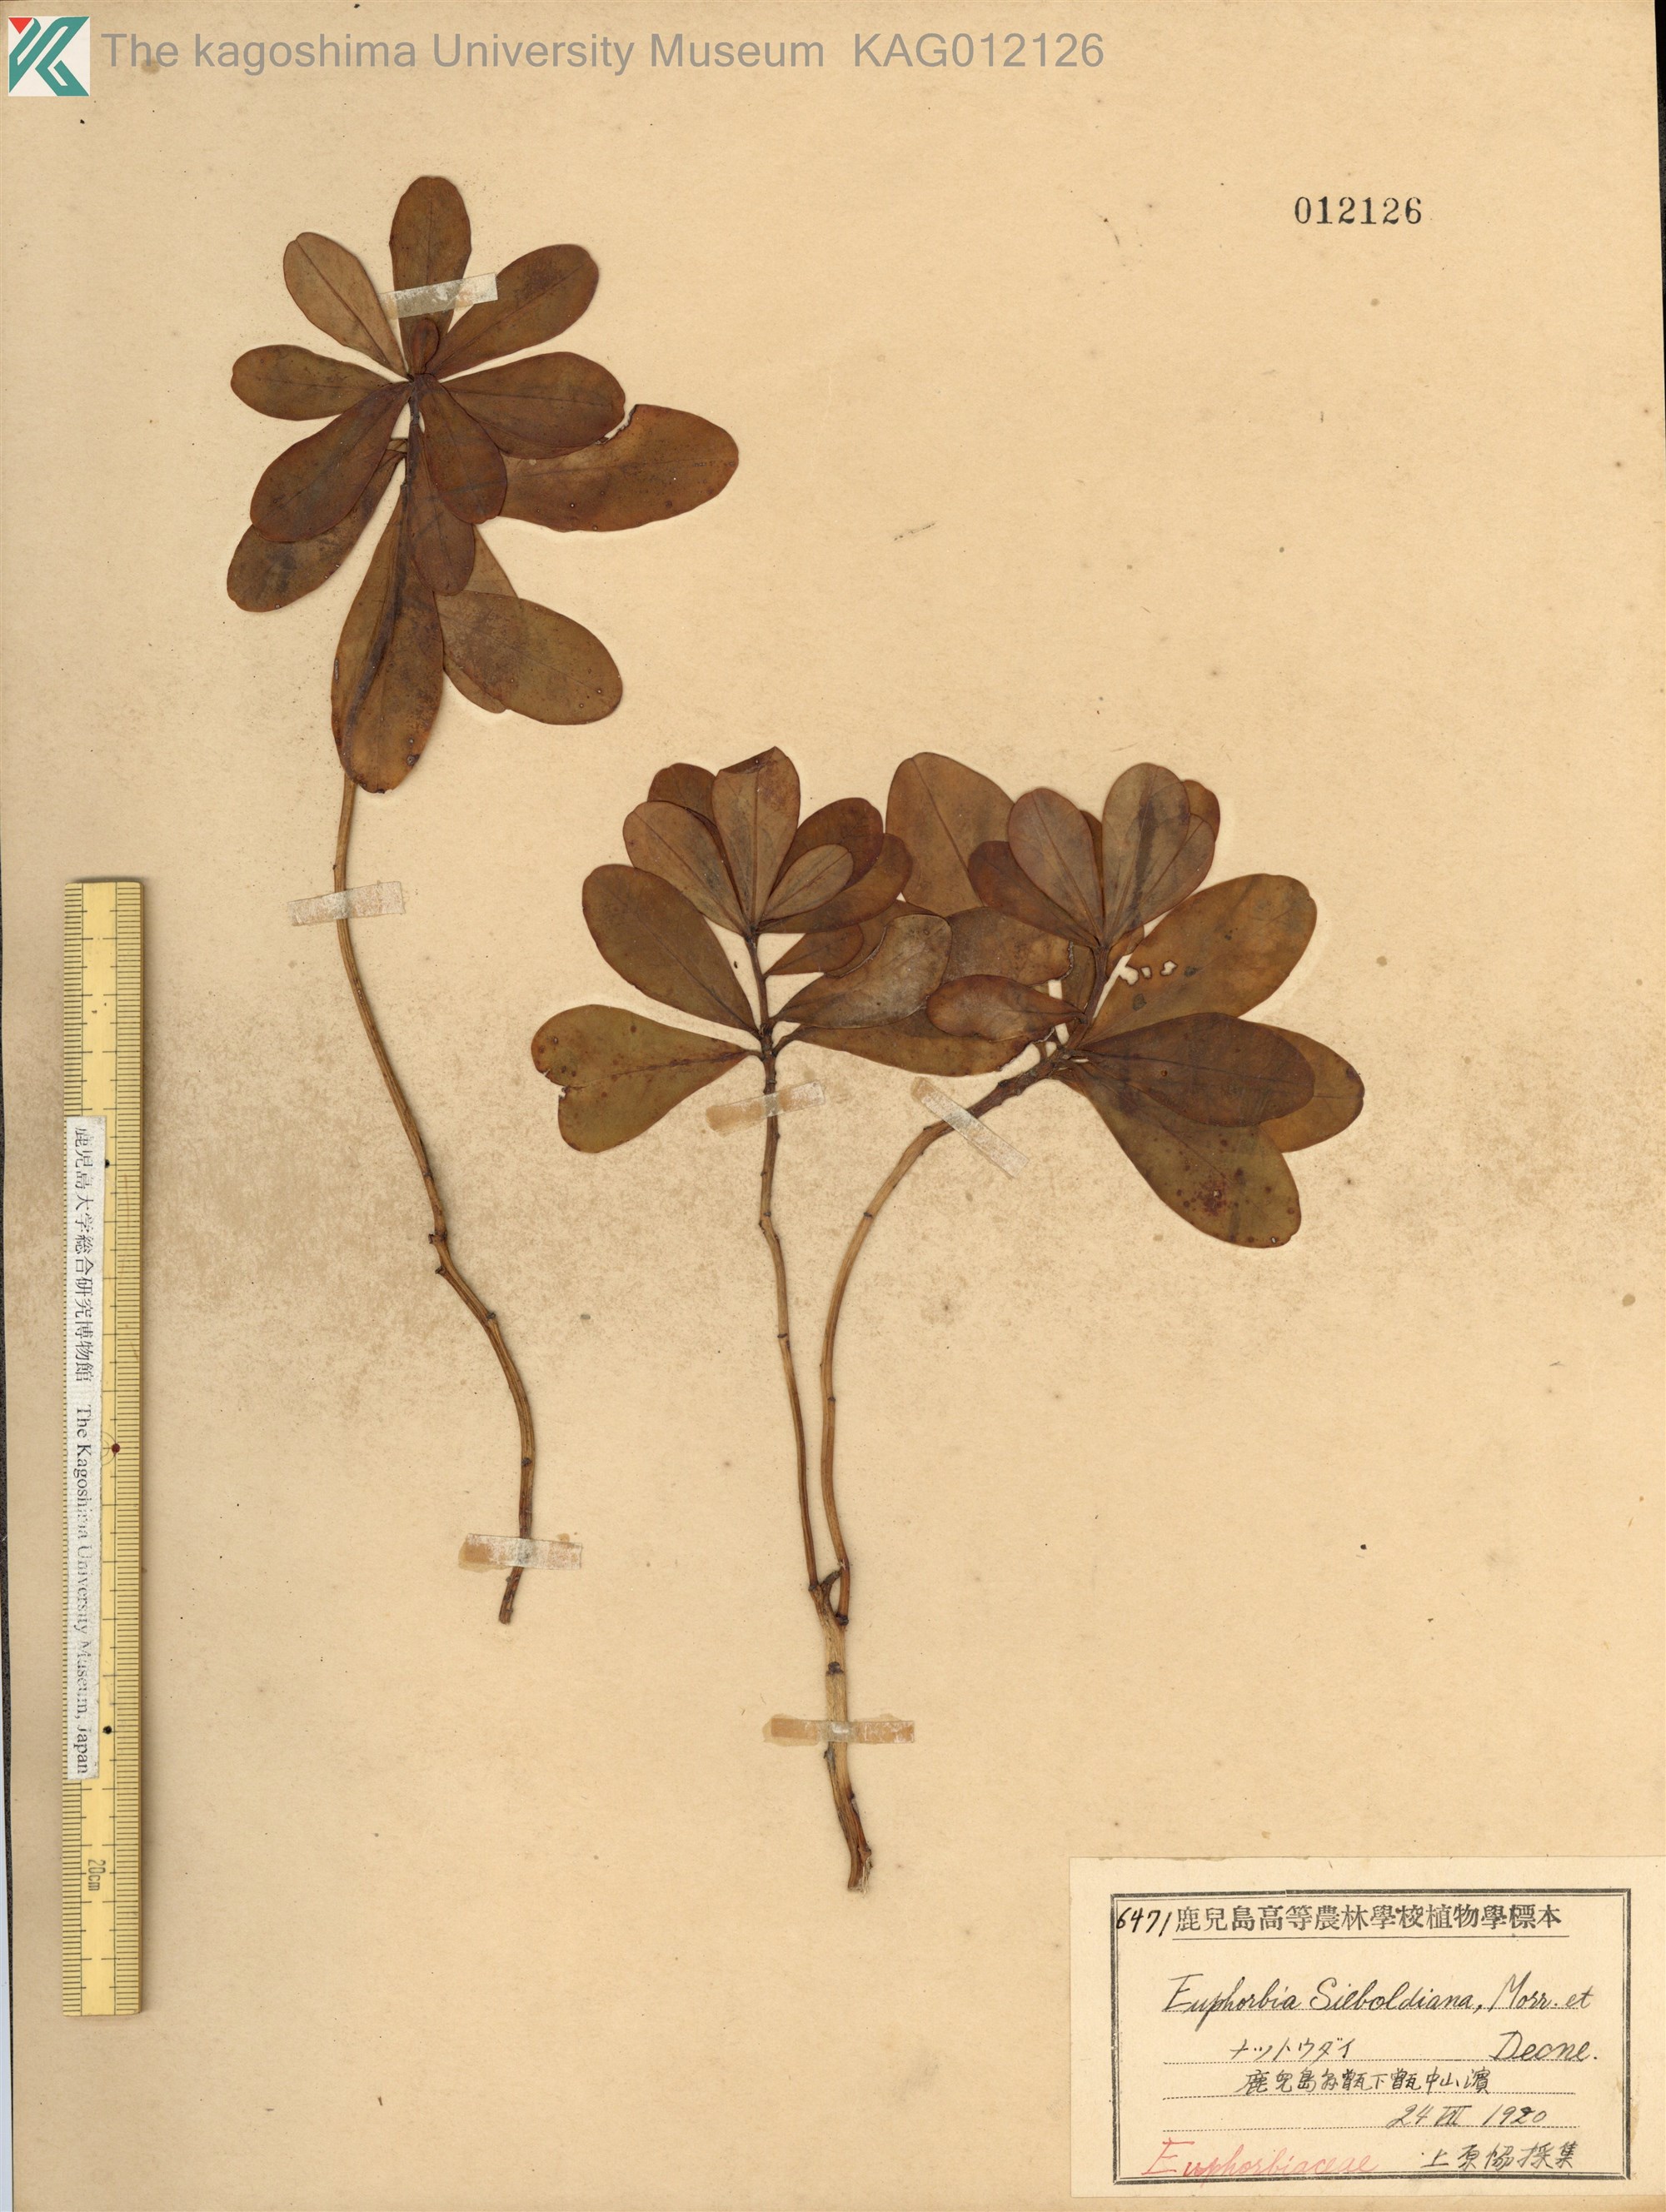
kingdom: Plantae
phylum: Tracheophyta
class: Magnoliopsida
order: Malpighiales
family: Euphorbiaceae
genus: Euphorbia
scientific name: Euphorbia sieboldiana
